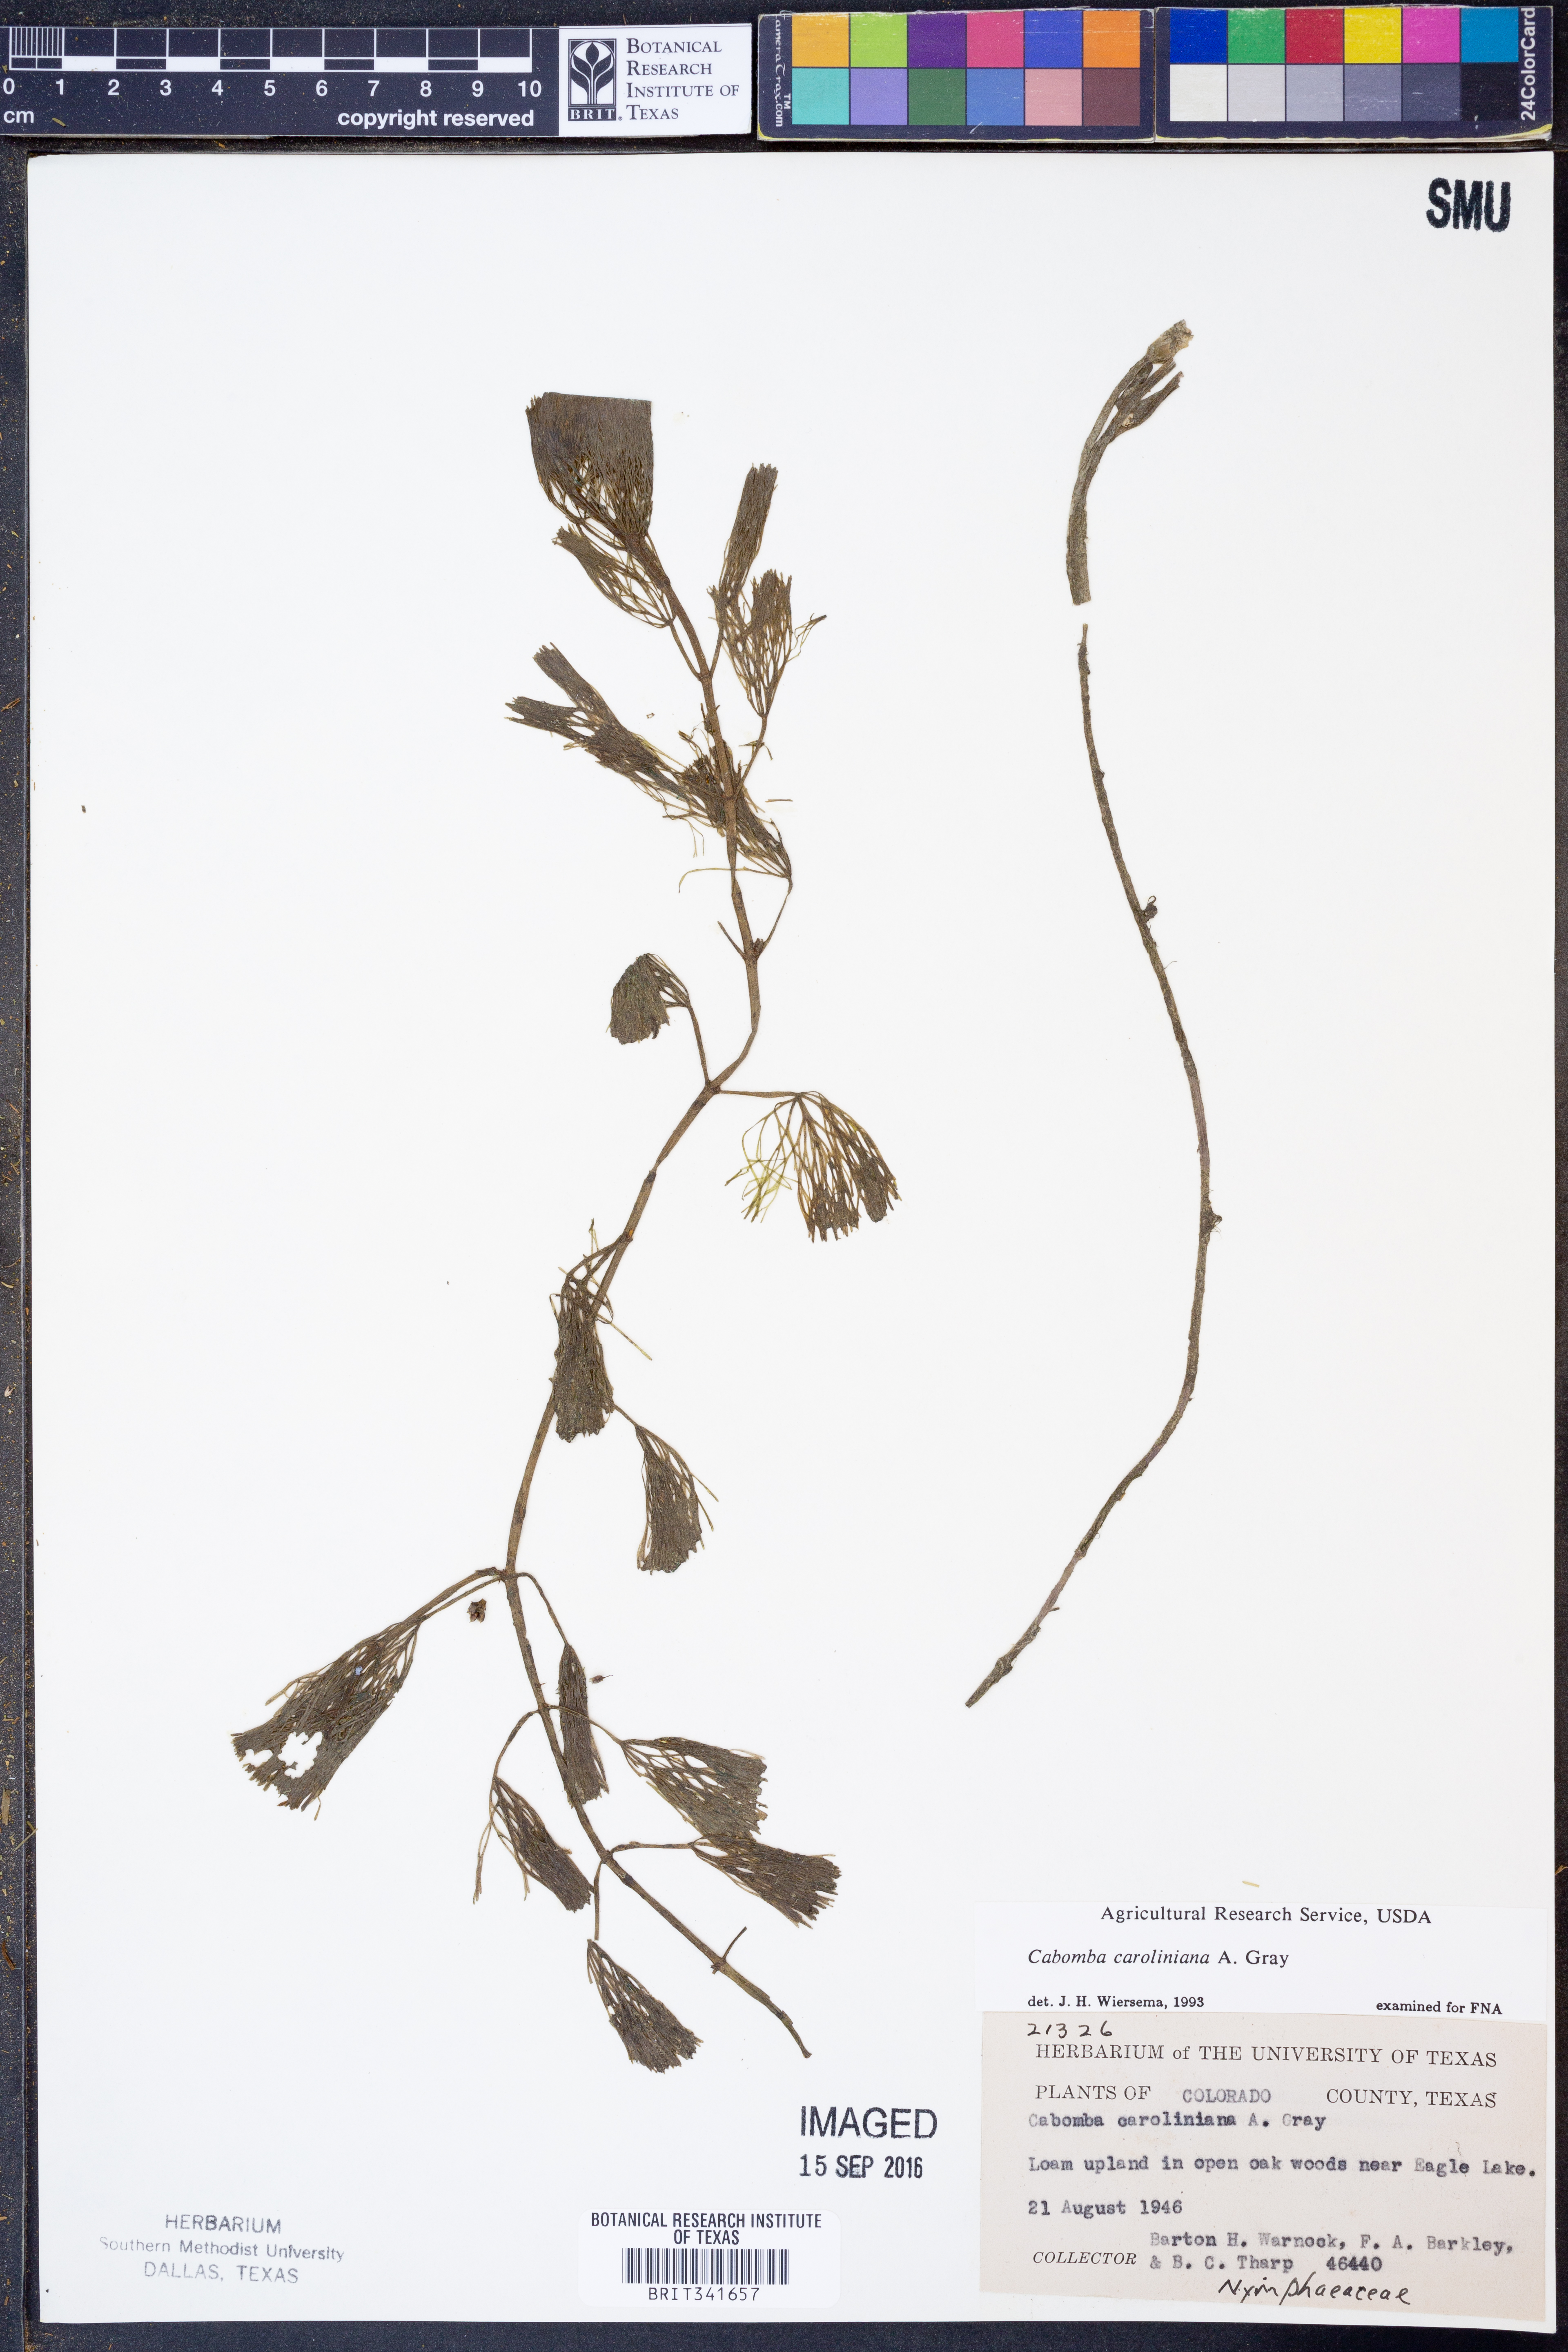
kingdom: Plantae
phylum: Tracheophyta
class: Magnoliopsida
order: Nymphaeales
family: Cabombaceae
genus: Cabomba
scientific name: Cabomba caroliniana
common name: Fanwort
